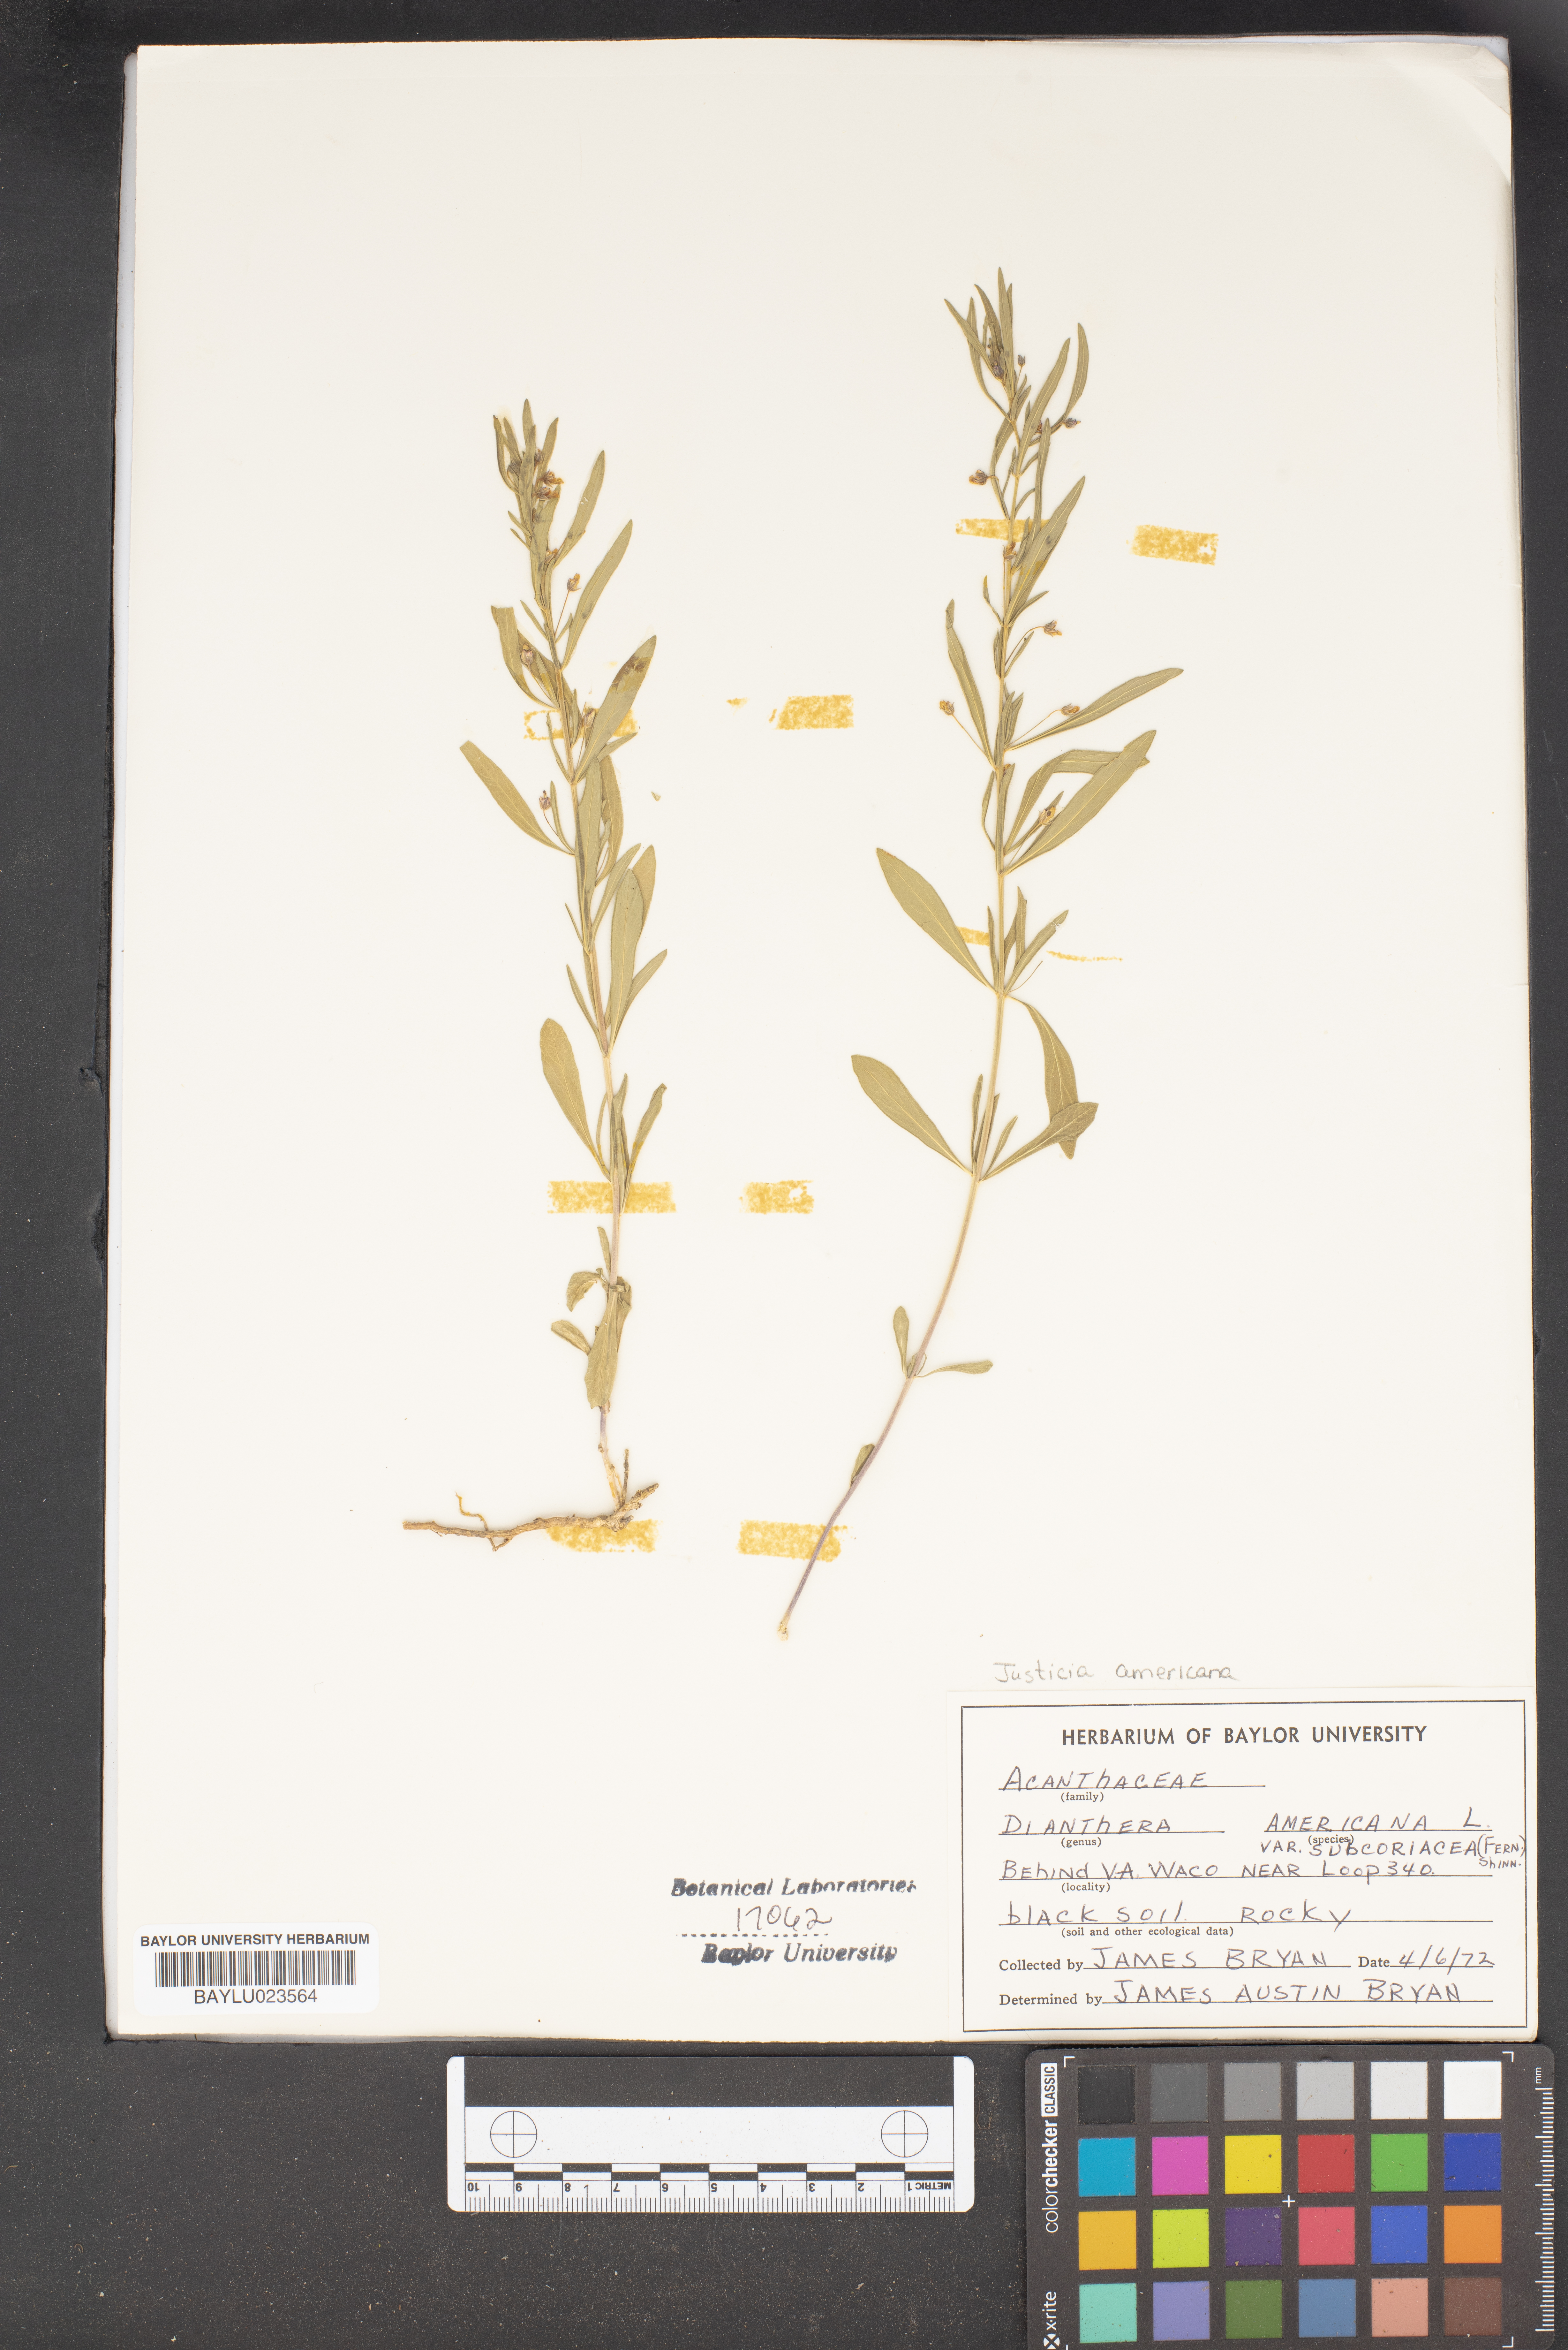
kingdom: Plantae
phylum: Tracheophyta
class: Magnoliopsida
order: Lamiales
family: Acanthaceae
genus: Dianthera
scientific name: Dianthera americana
